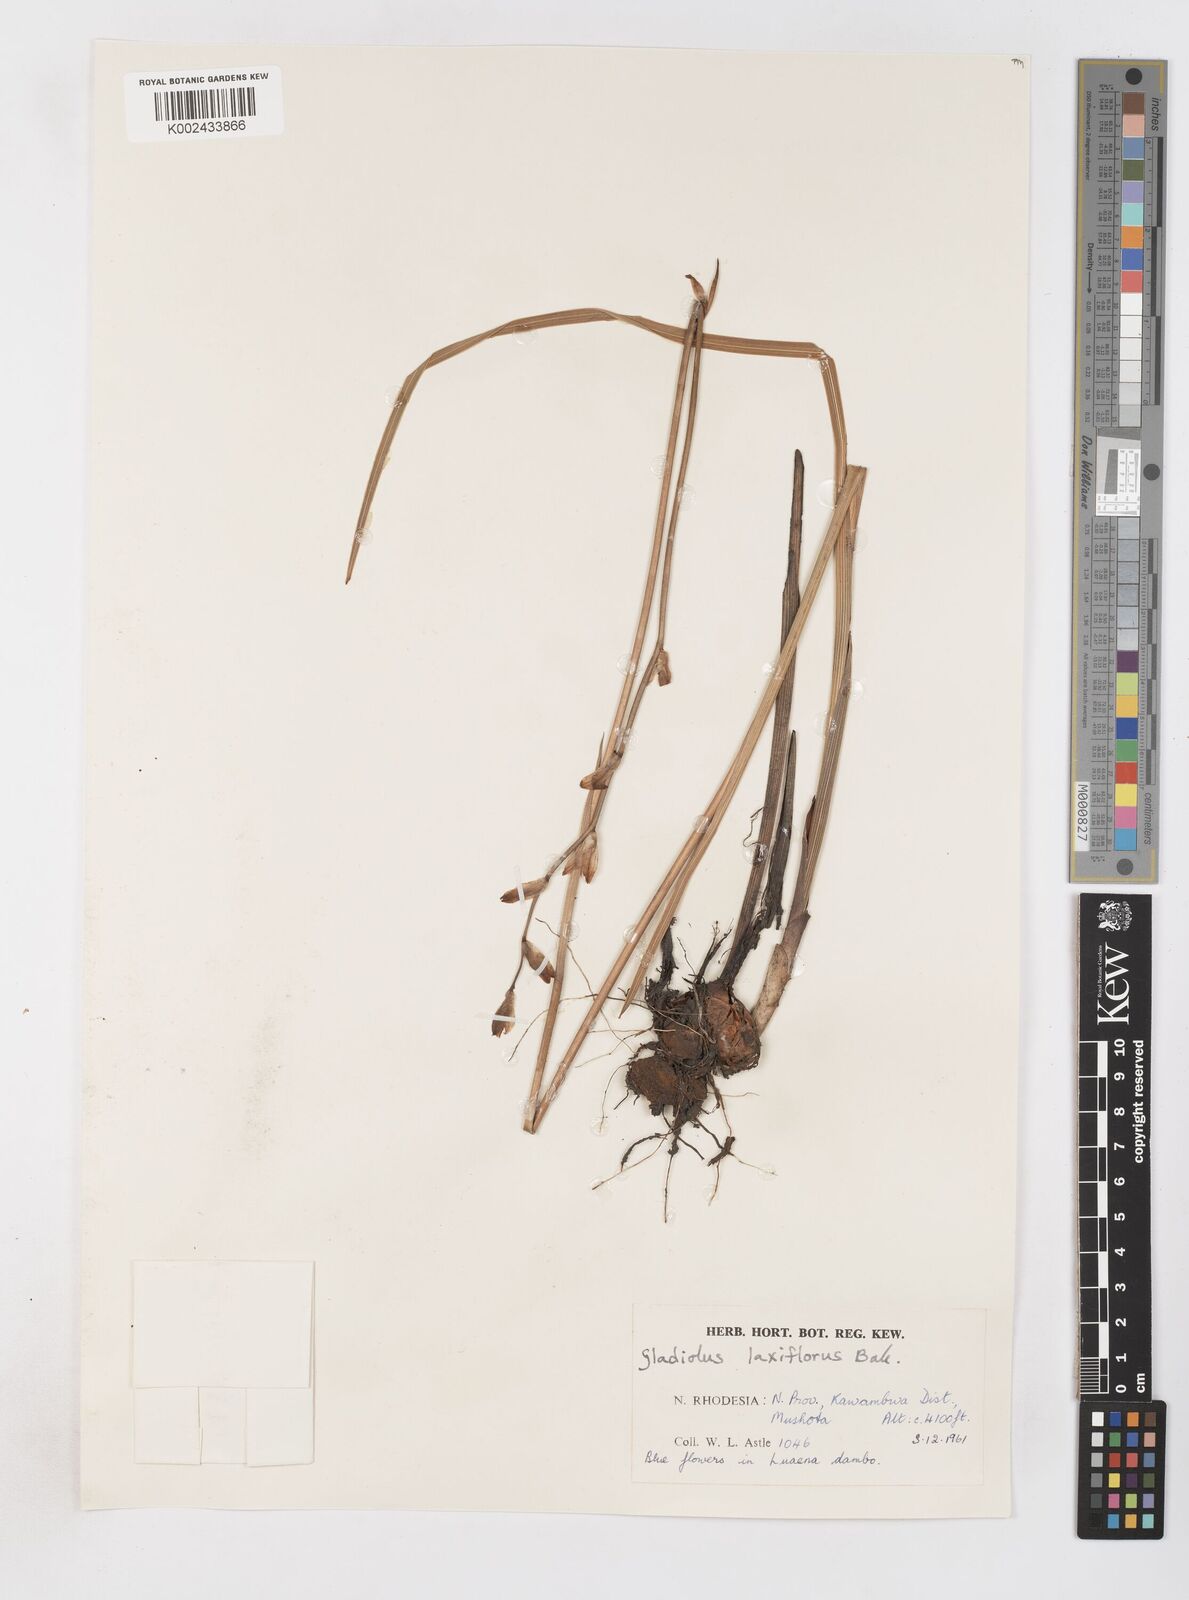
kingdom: Plantae
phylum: Tracheophyta
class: Liliopsida
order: Asparagales
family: Iridaceae
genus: Gladiolus
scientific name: Gladiolus laxiflorus
